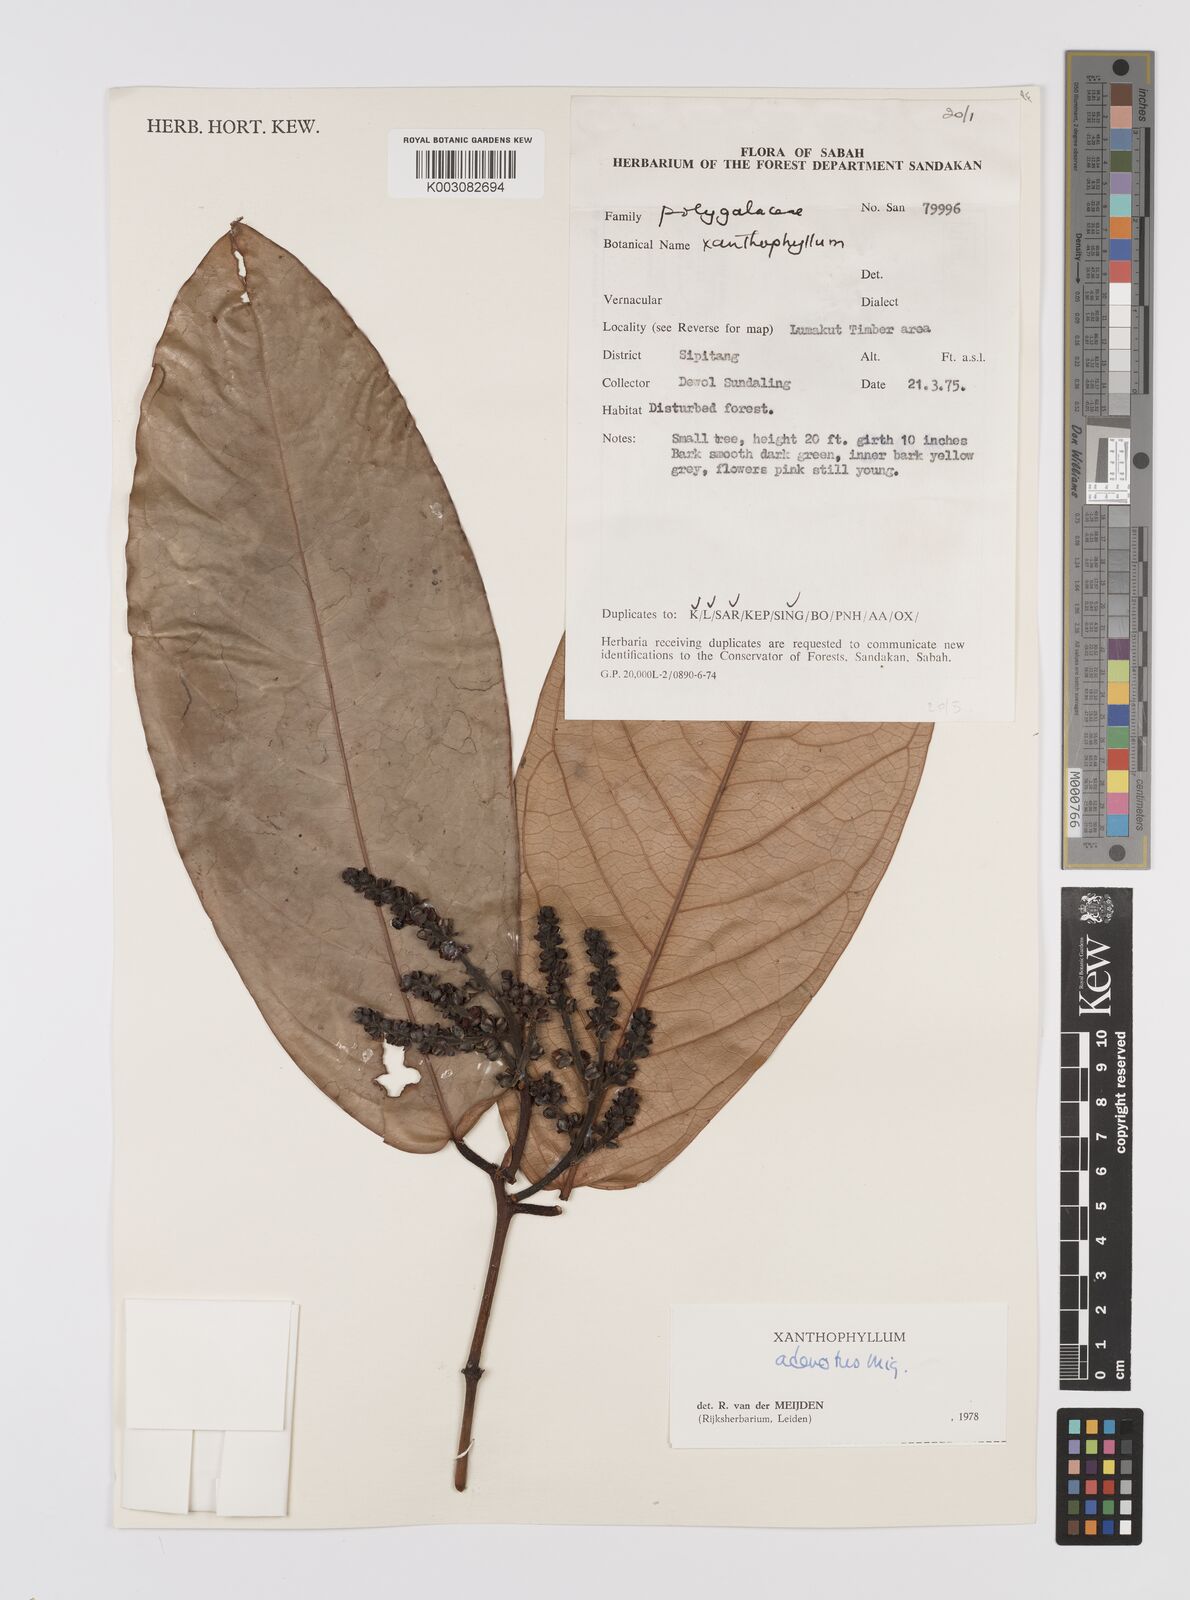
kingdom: Plantae
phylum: Tracheophyta
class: Magnoliopsida
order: Fabales
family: Polygalaceae
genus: Xanthophyllum
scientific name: Xanthophyllum adenotus
